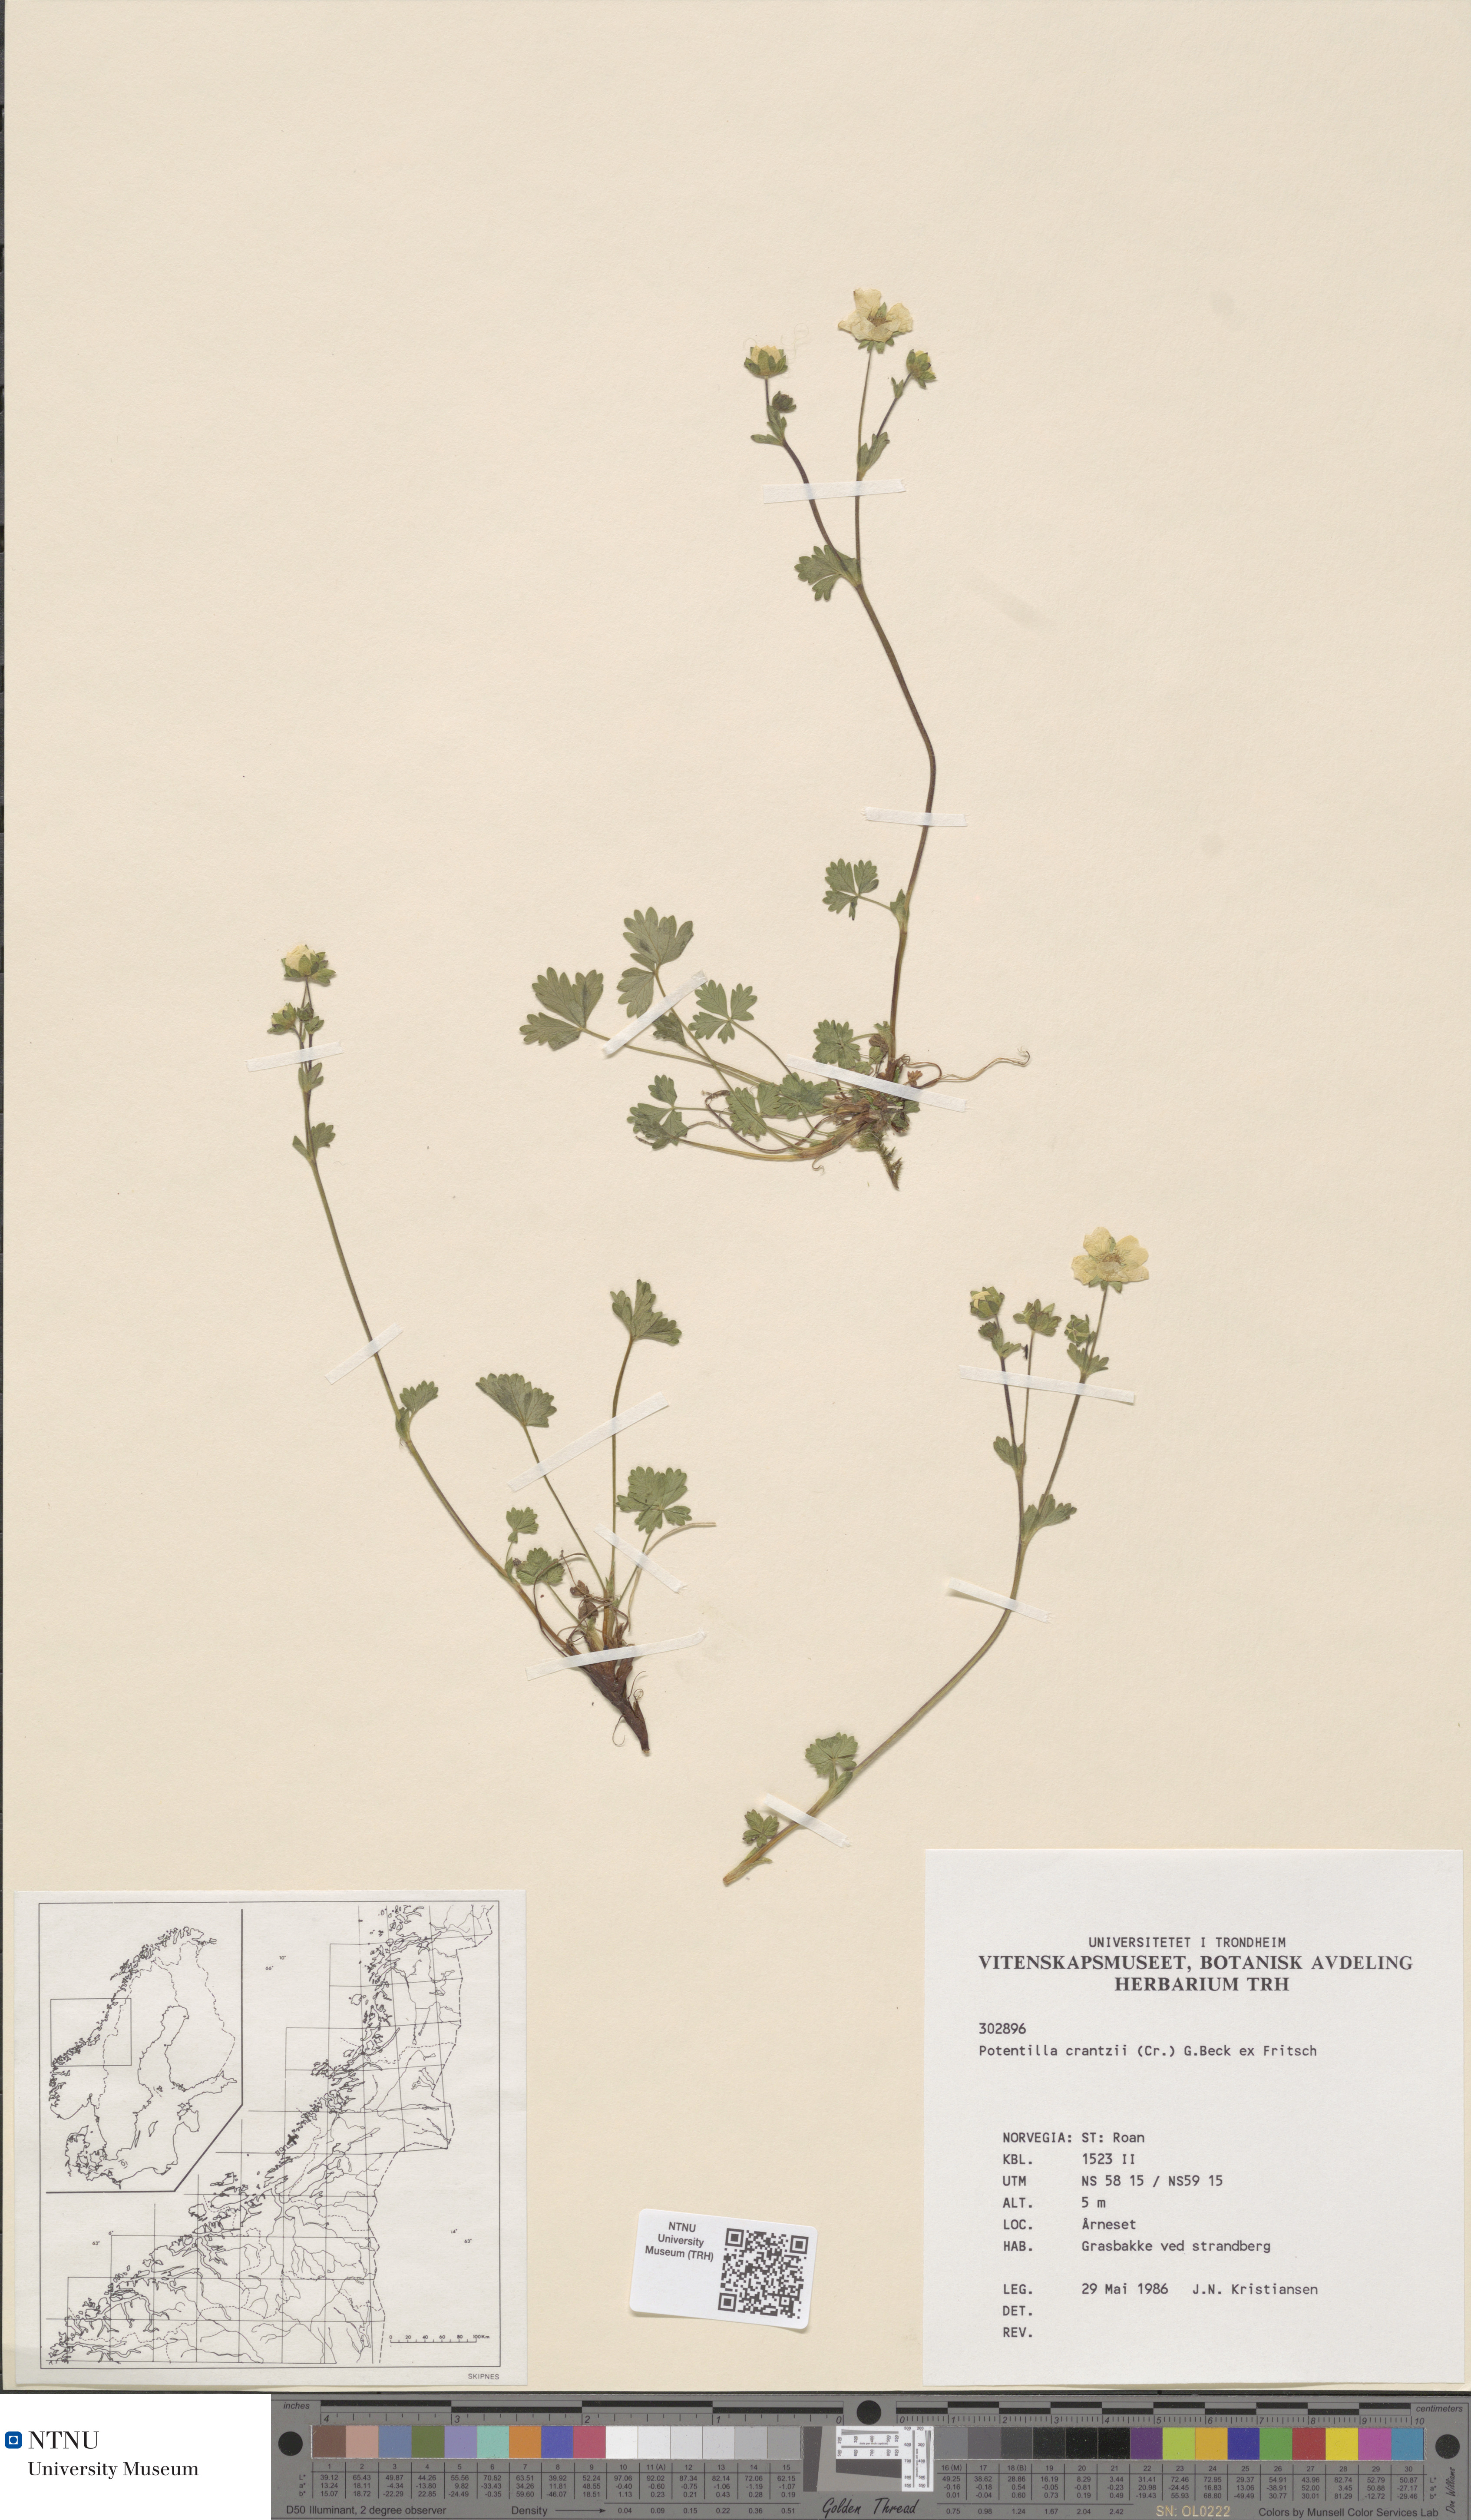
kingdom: Plantae
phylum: Tracheophyta
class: Magnoliopsida
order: Rosales
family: Rosaceae
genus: Potentilla
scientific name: Potentilla crantzii
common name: Alpine cinquefoil
